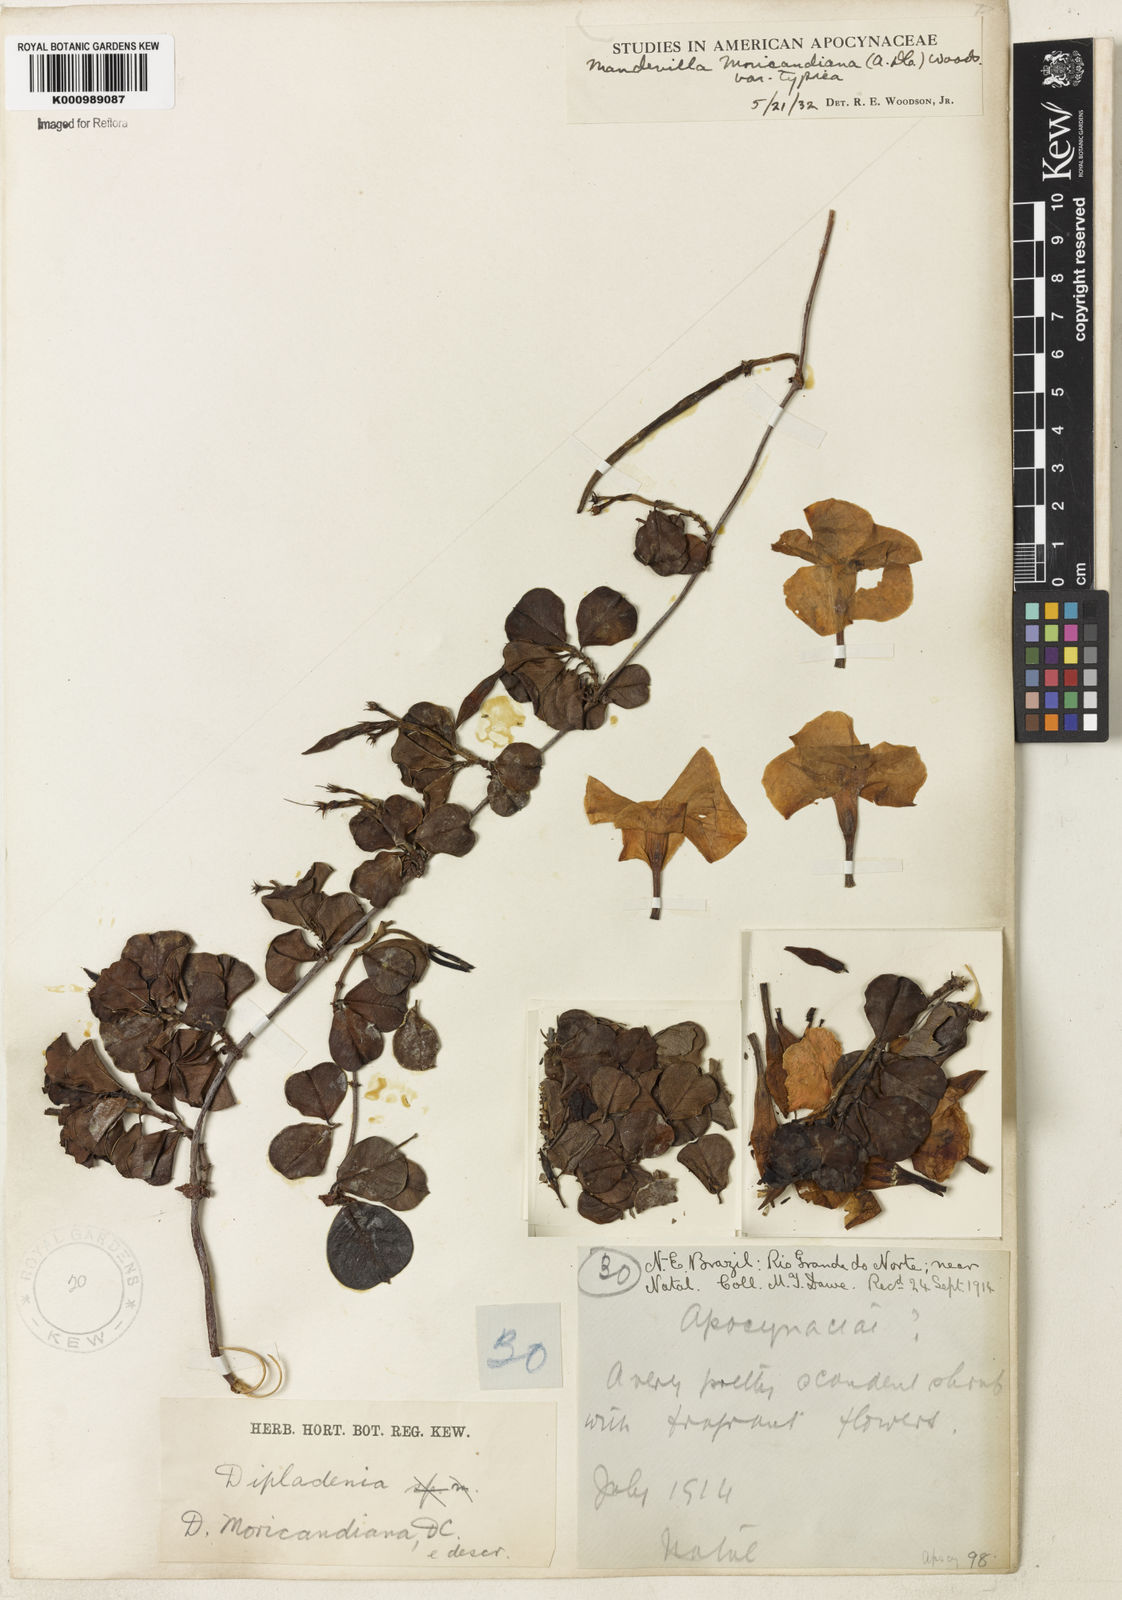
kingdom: Plantae
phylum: Tracheophyta
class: Magnoliopsida
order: Gentianales
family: Apocynaceae
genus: Mandevilla
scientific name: Mandevilla moricandiana
